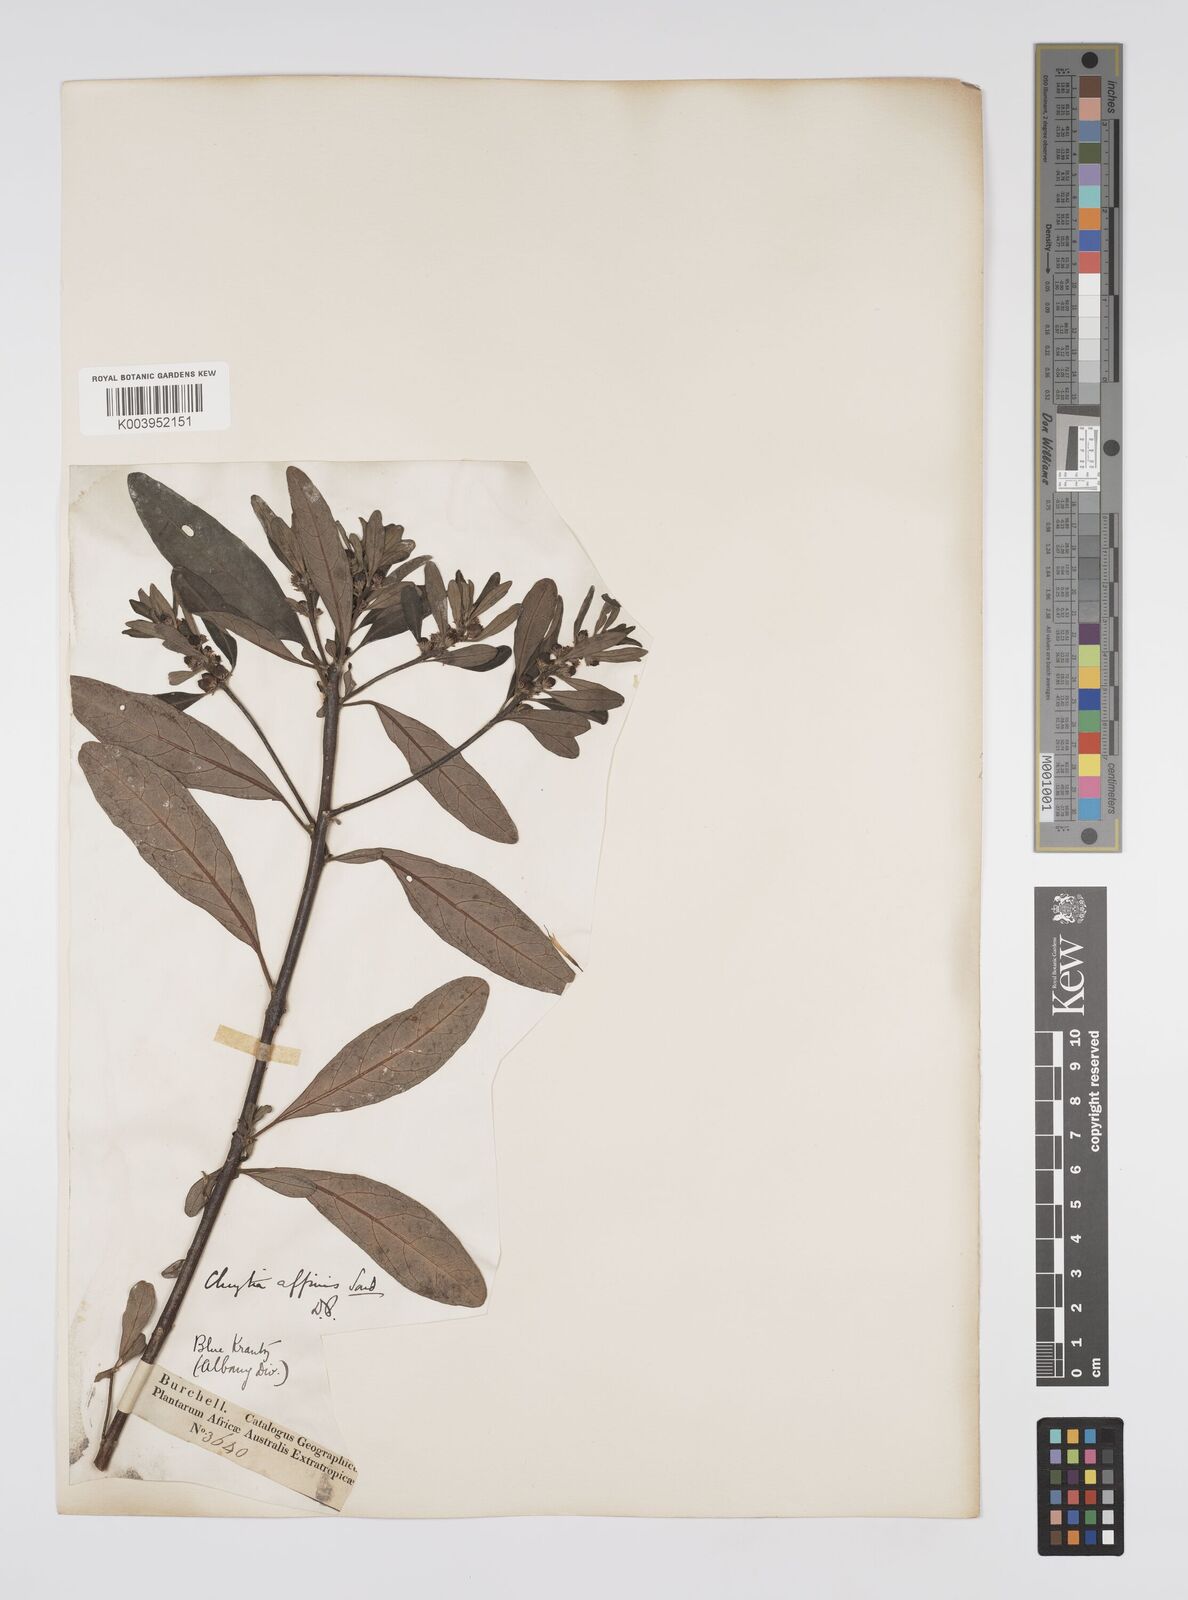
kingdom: Plantae
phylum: Tracheophyta
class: Magnoliopsida
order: Malpighiales
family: Peraceae
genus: Clutia
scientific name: Clutia affinis
